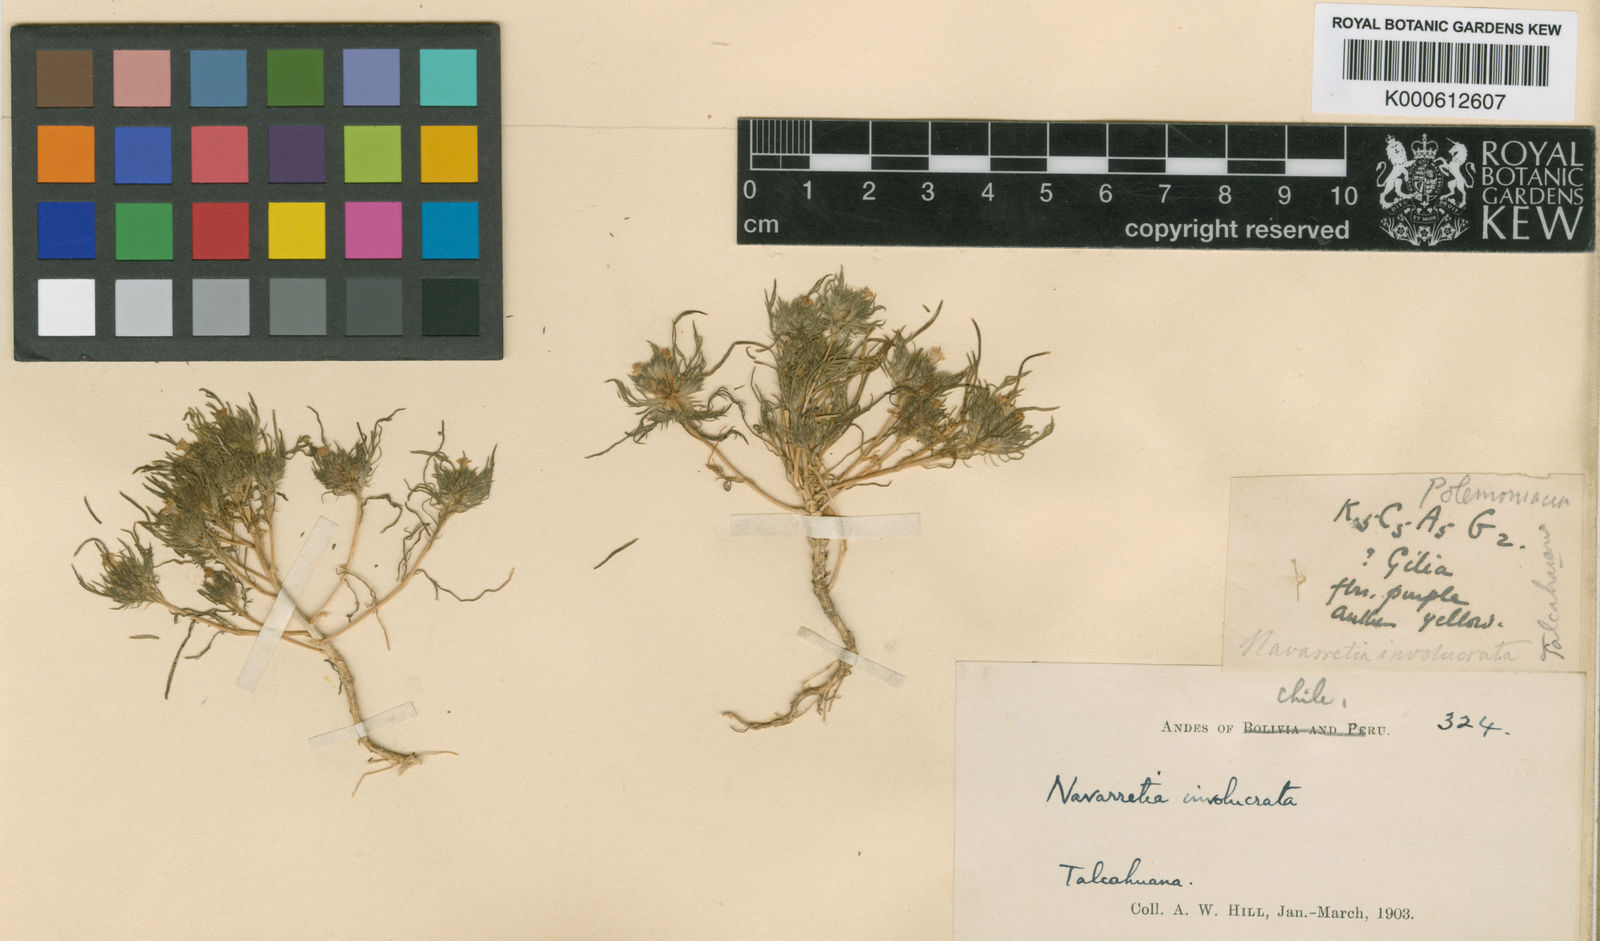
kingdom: Plantae
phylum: Tracheophyta
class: Magnoliopsida
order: Ericales
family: Polemoniaceae
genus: Navarretia
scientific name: Navarretia involucrata
